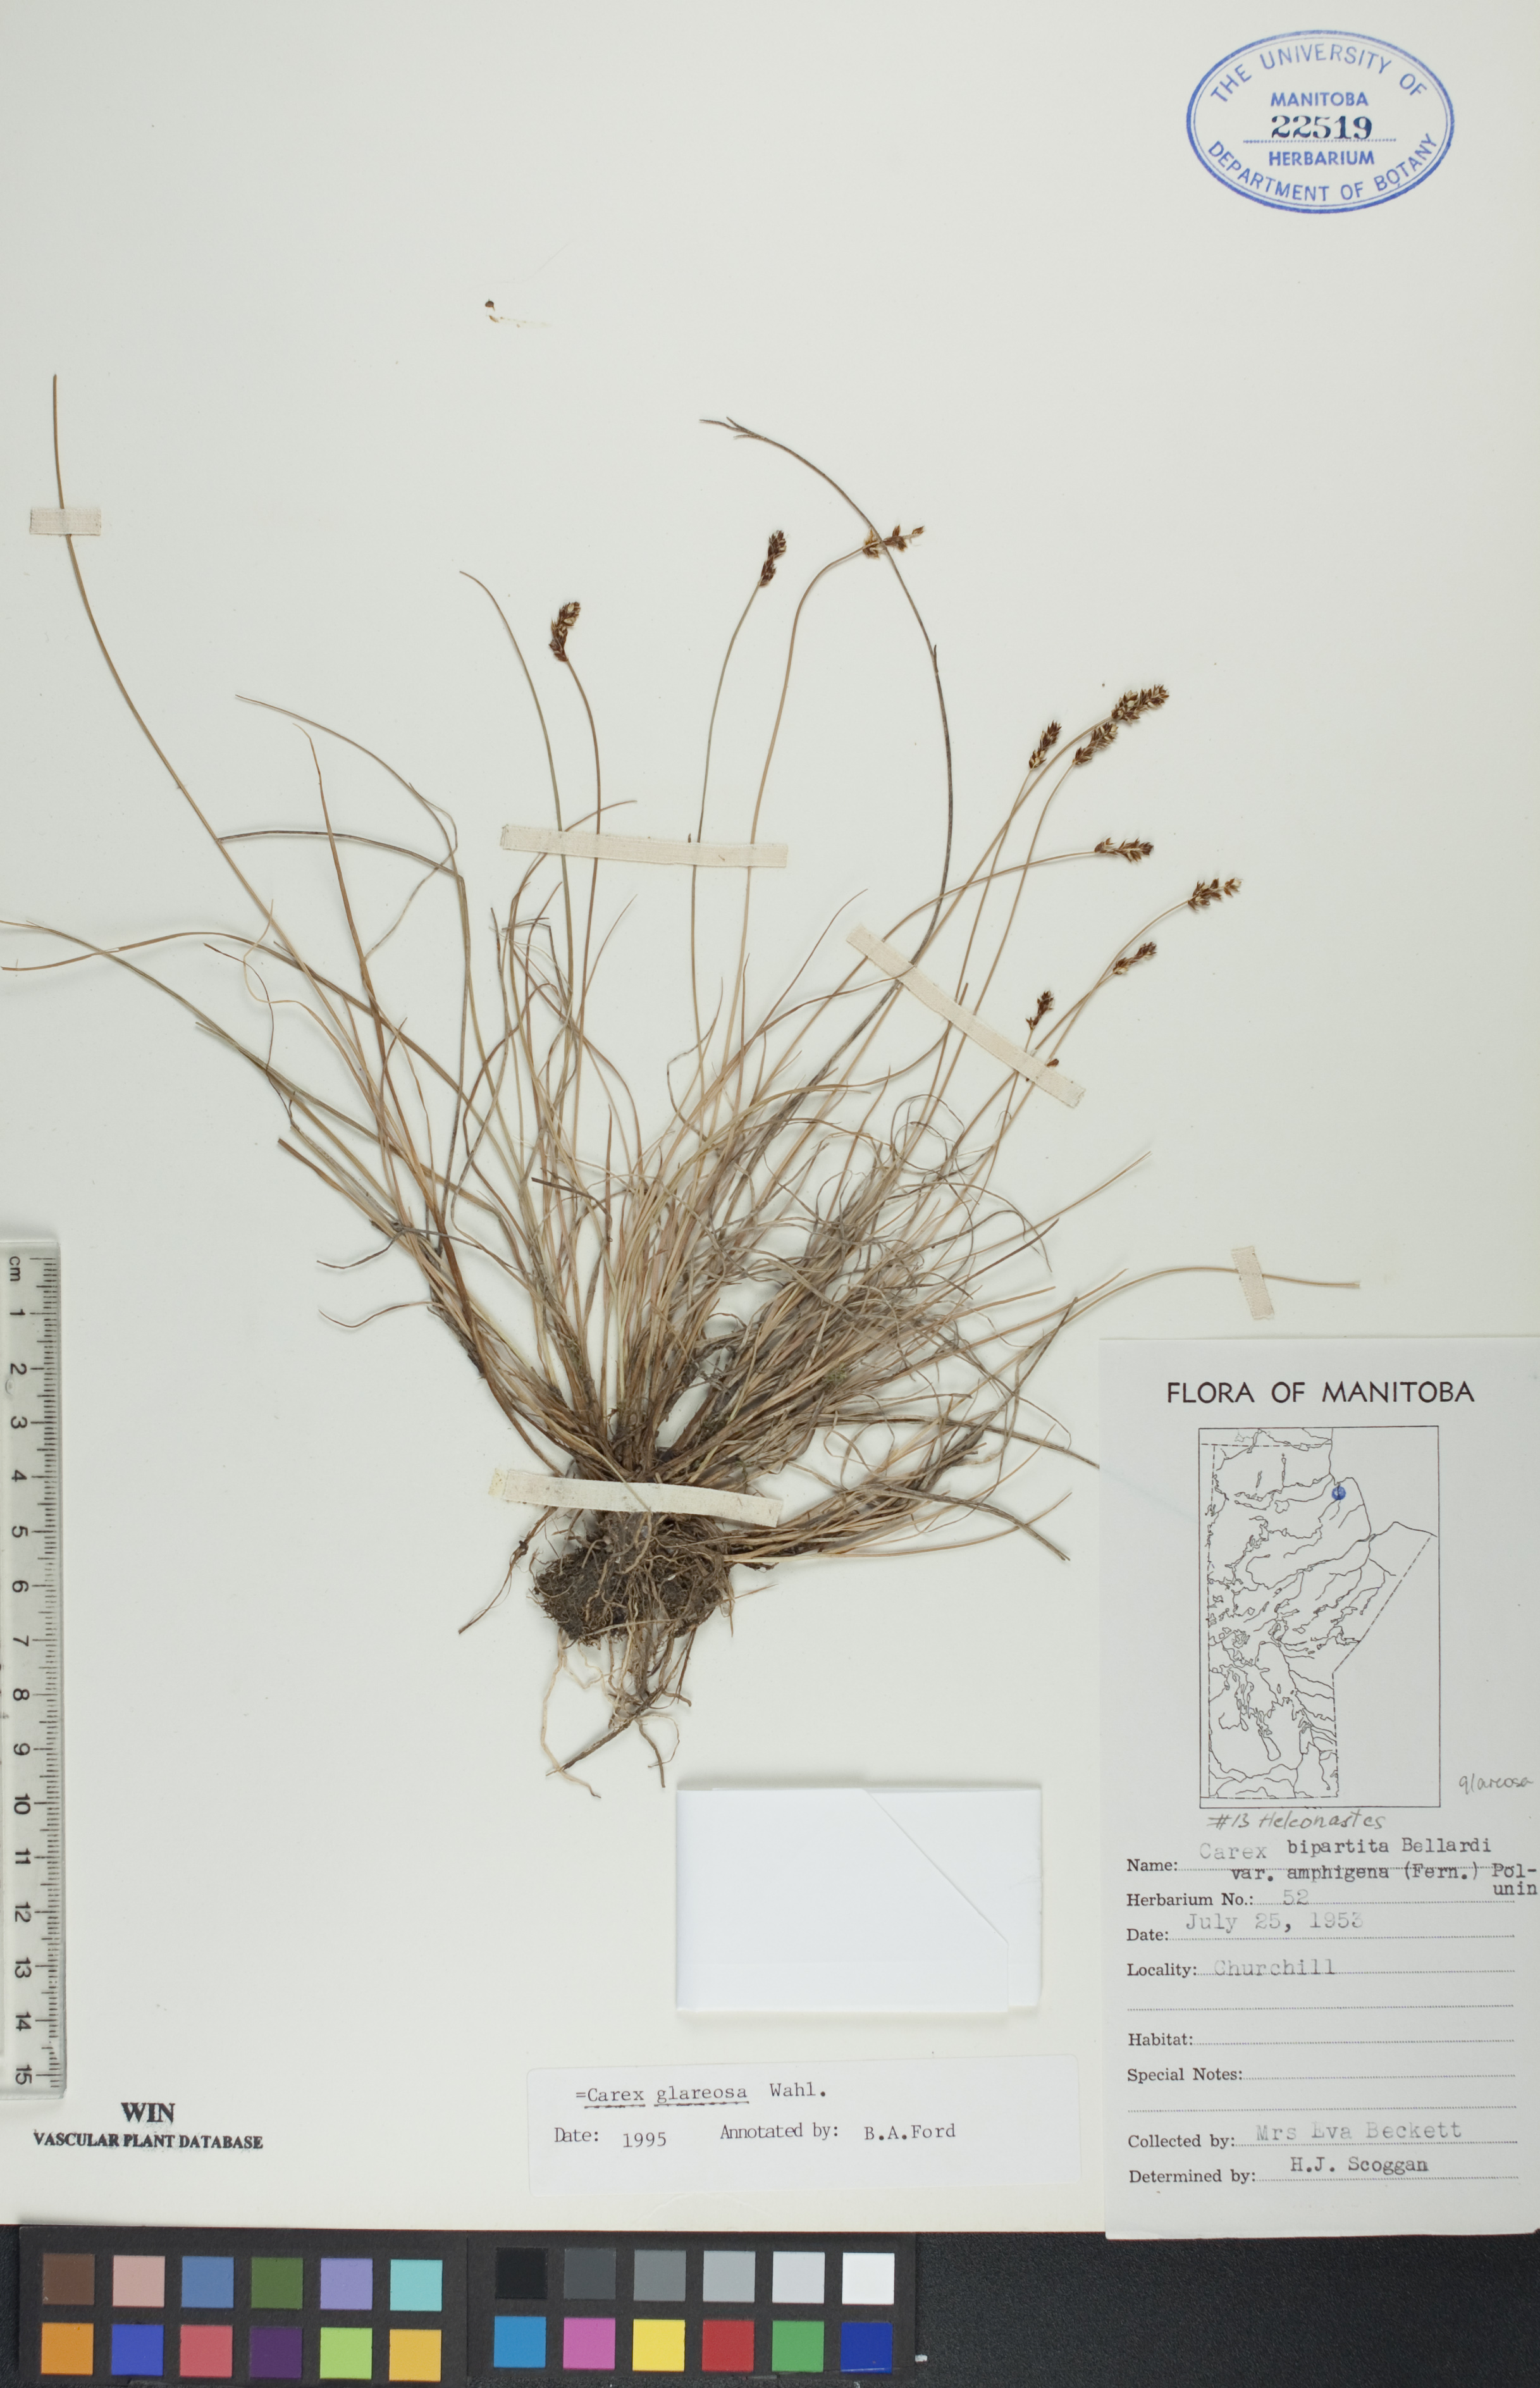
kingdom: Plantae
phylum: Tracheophyta
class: Liliopsida
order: Poales
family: Cyperaceae
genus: Carex
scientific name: Carex glareosa
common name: Clustered sedge
